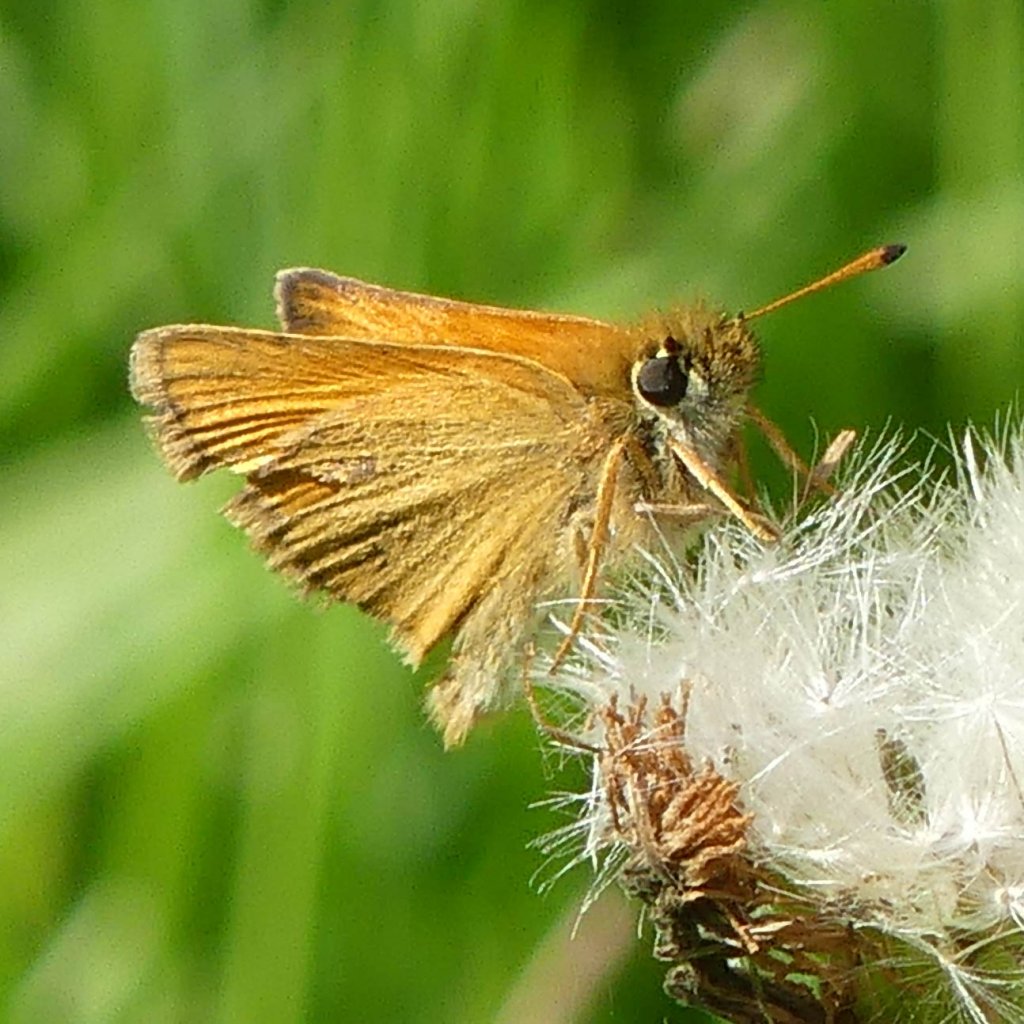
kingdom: Animalia
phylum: Arthropoda
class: Insecta
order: Lepidoptera
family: Hesperiidae
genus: Thymelicus
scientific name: Thymelicus lineola
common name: European Skipper
